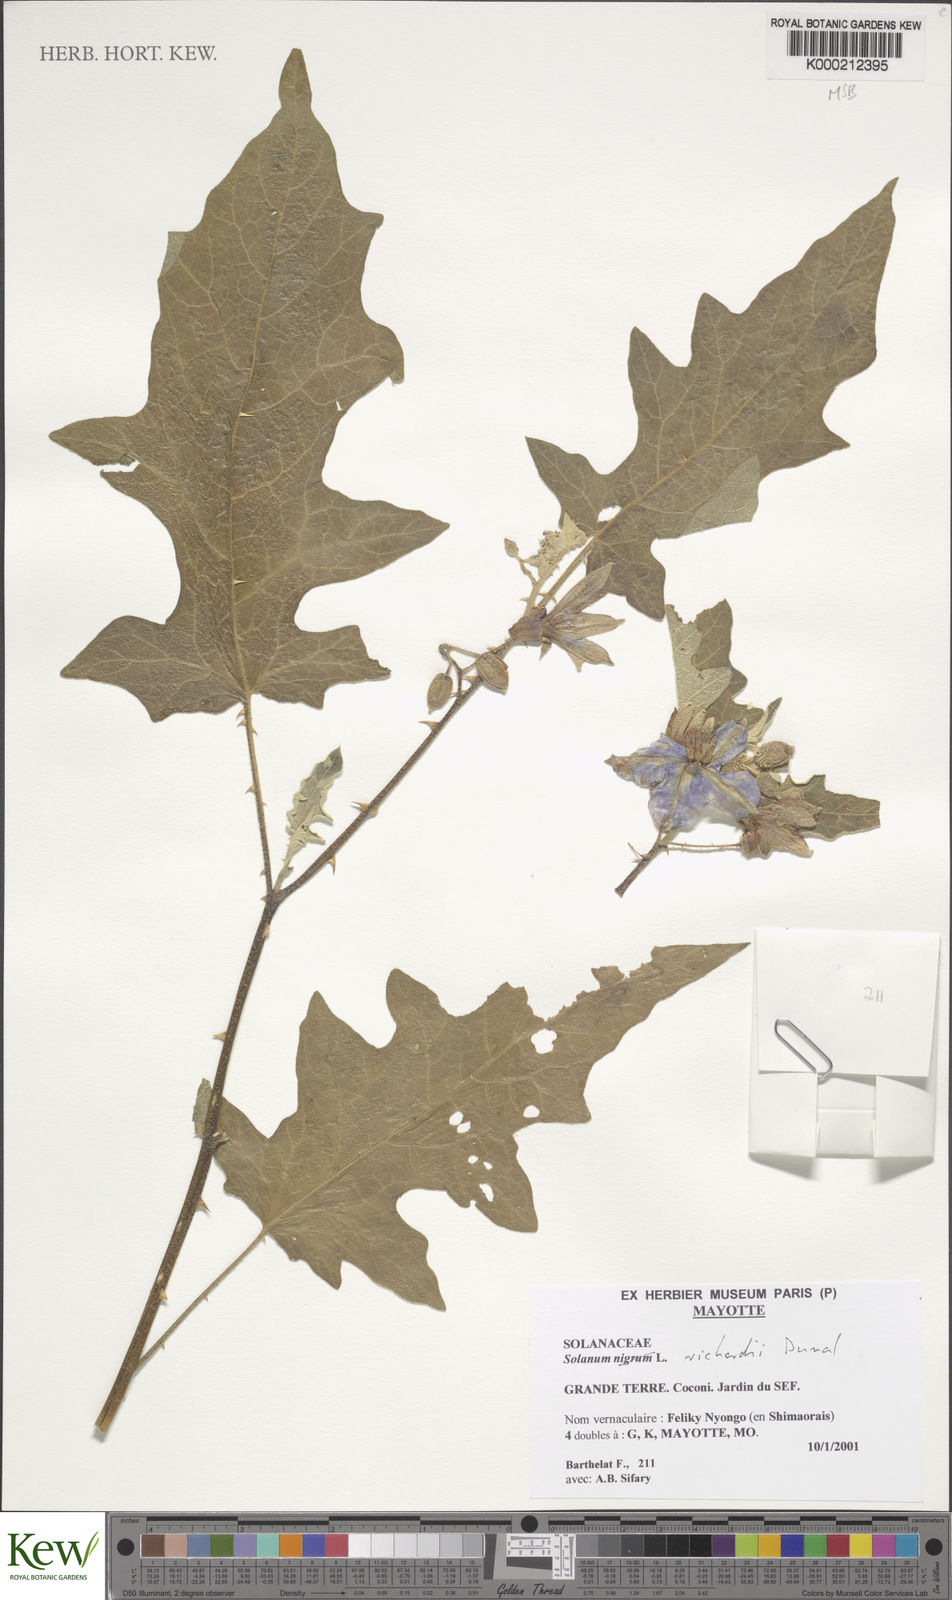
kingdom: Plantae
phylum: Tracheophyta
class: Magnoliopsida
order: Solanales
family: Solanaceae
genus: Solanum
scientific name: Solanum richardii
